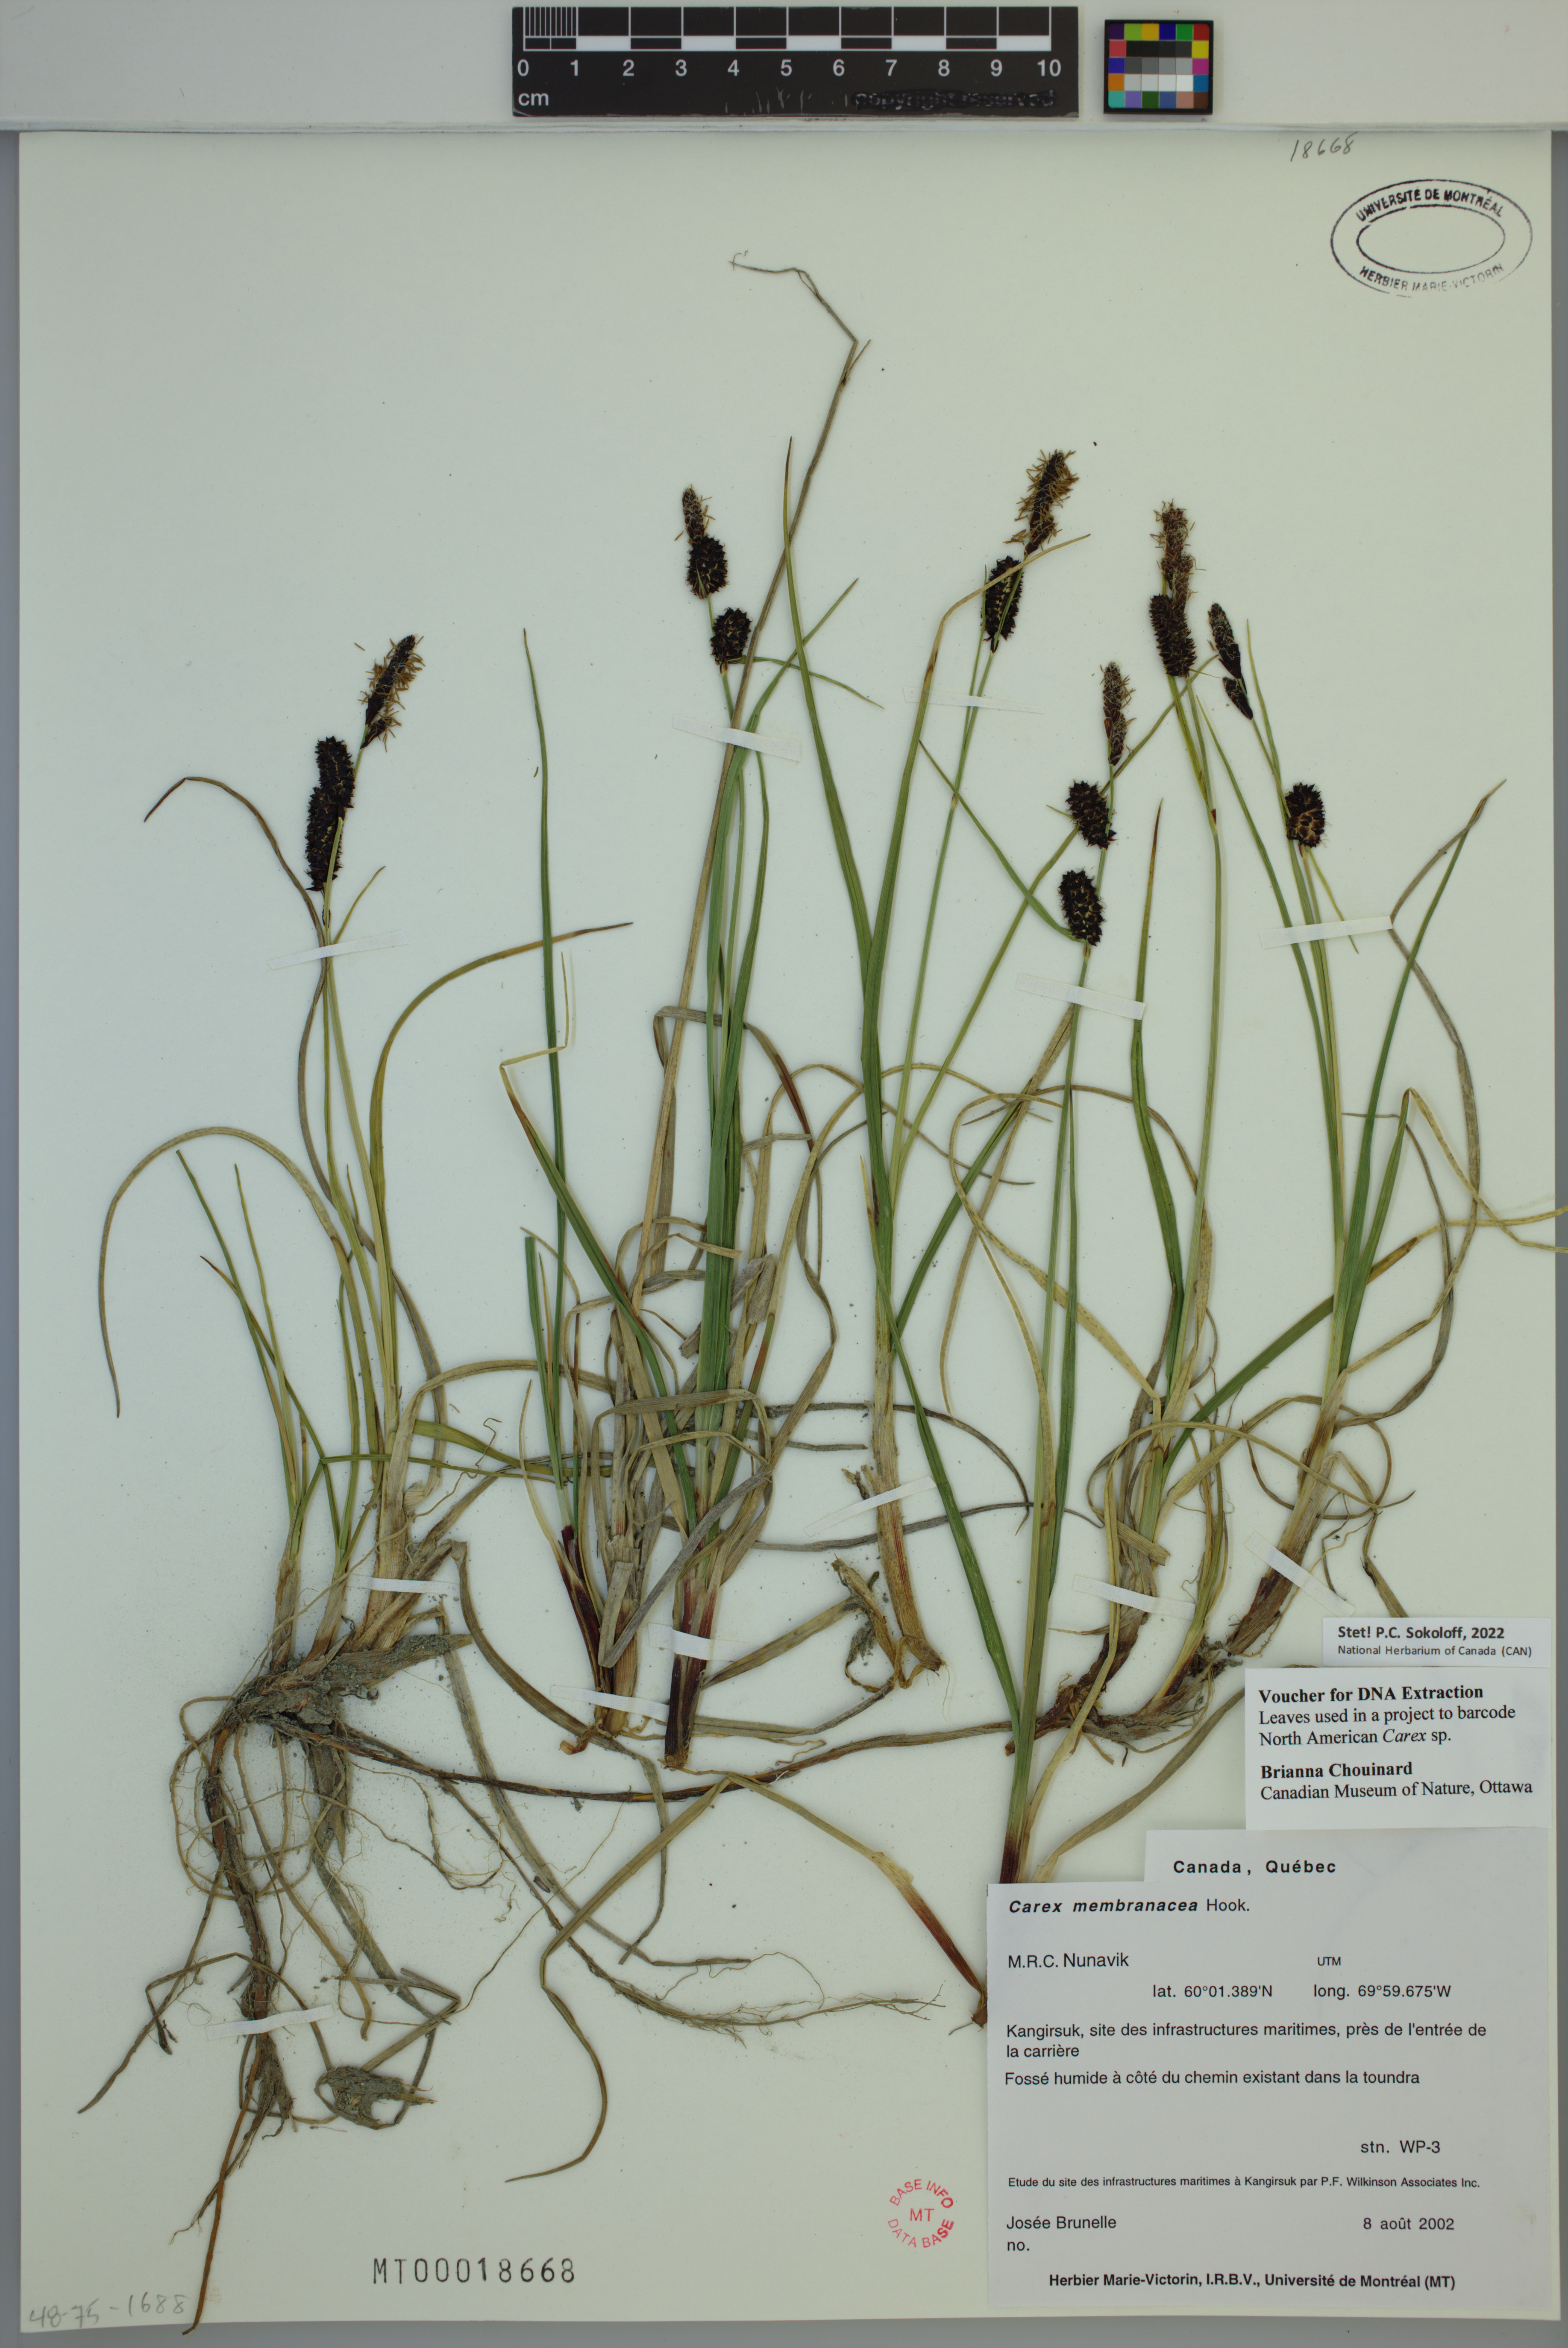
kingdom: Plantae
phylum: Tracheophyta
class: Liliopsida
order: Poales
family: Cyperaceae
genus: Carex
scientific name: Carex membranacea
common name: Fragile sedge
